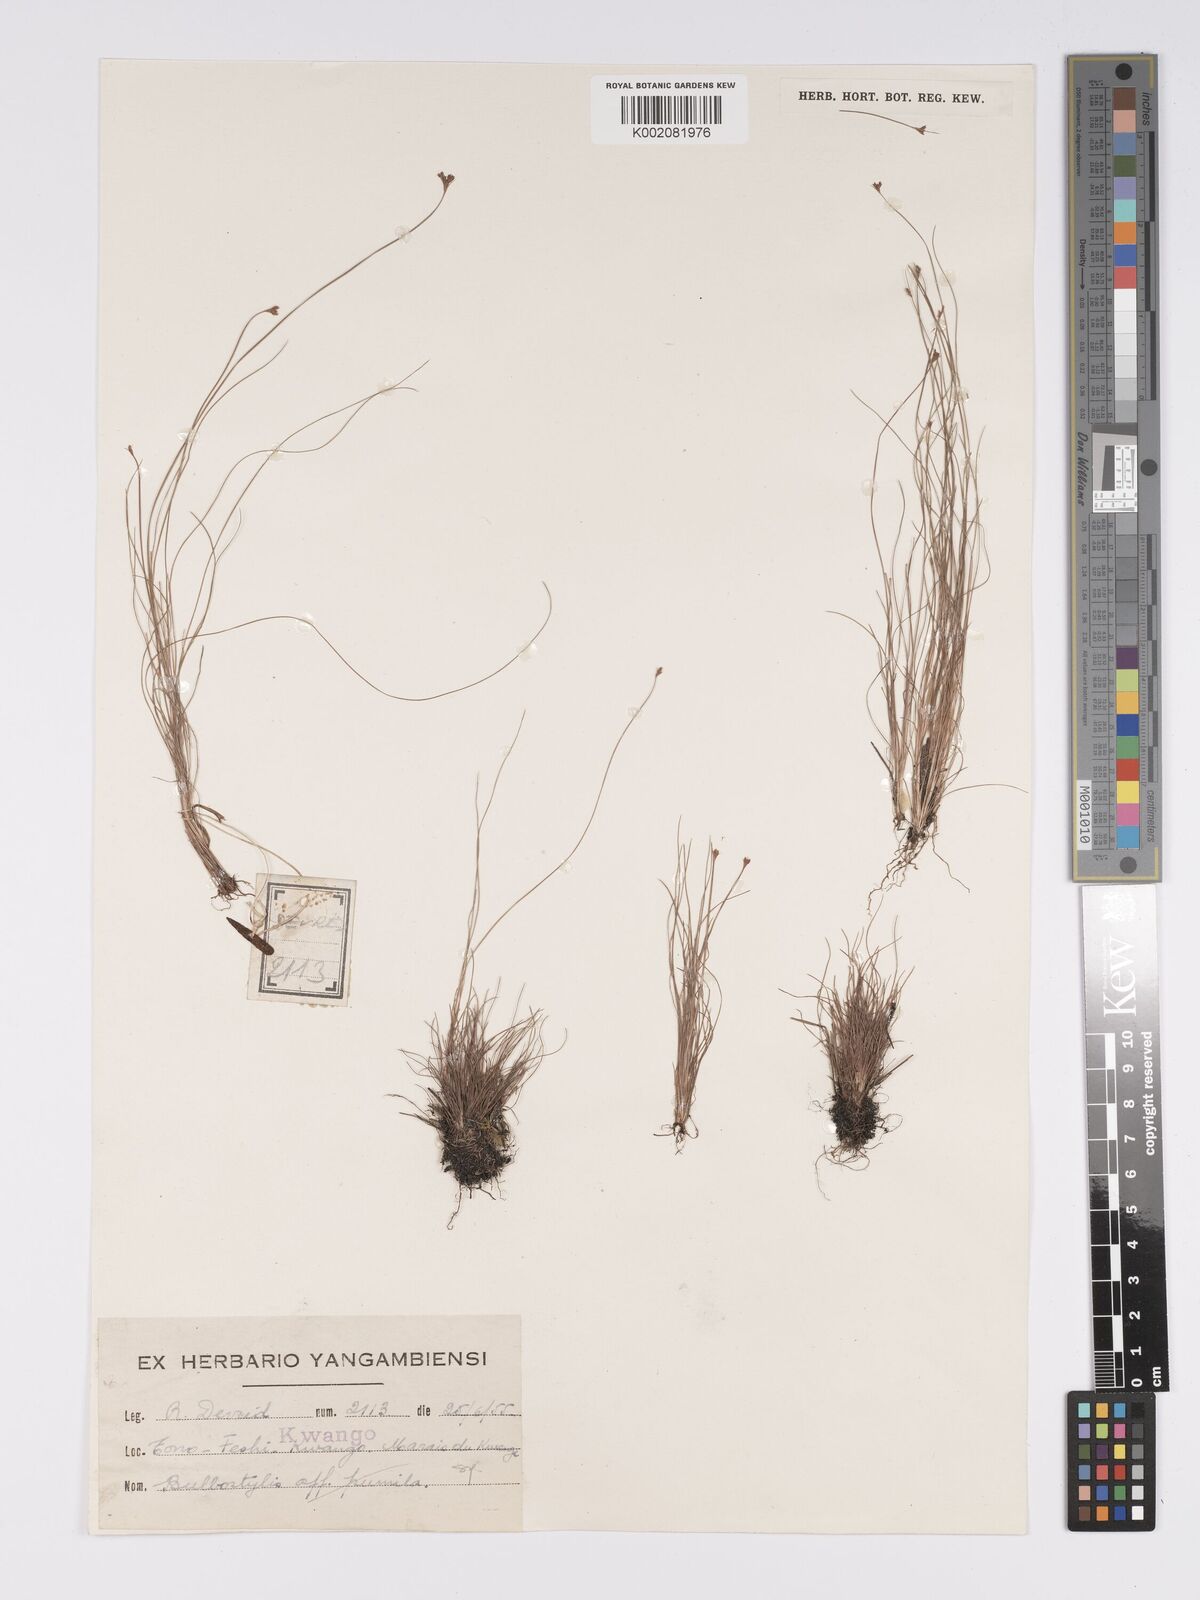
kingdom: Plantae
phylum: Tracheophyta
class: Liliopsida
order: Poales
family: Cyperaceae
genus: Bulbostylis
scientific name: Bulbostylis
